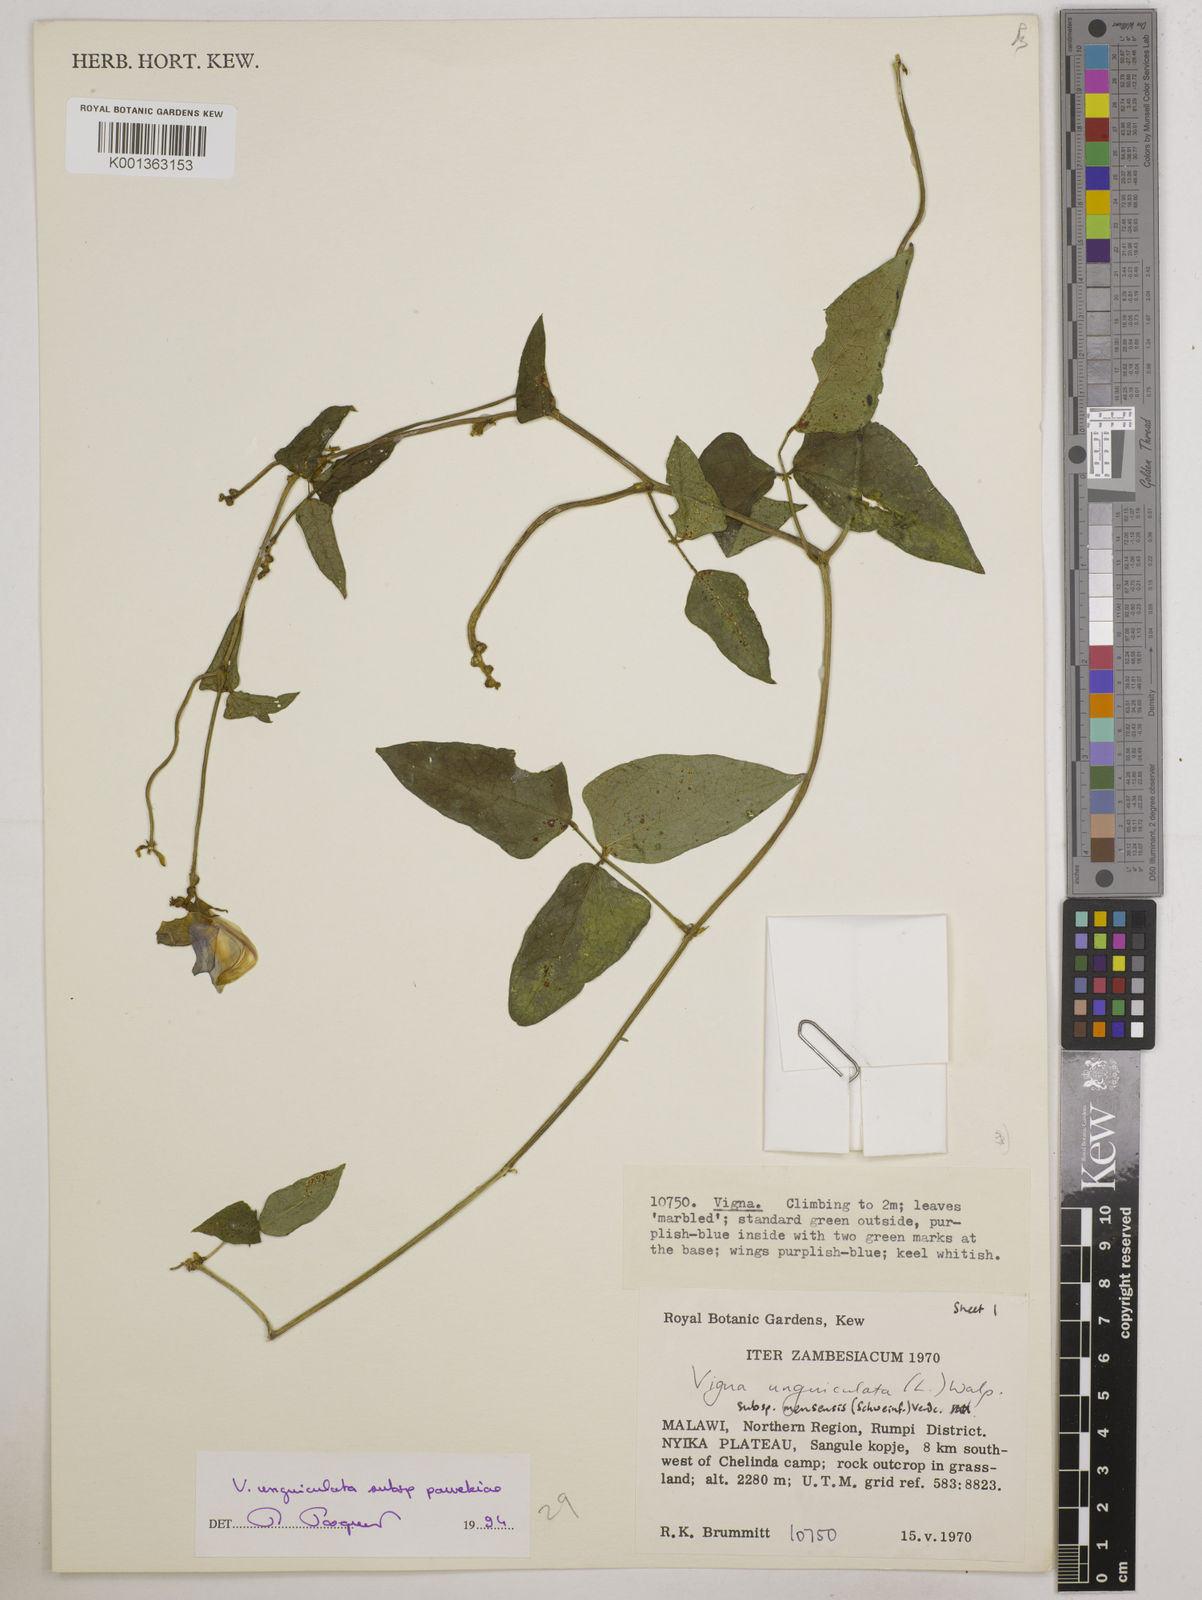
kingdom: Plantae
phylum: Tracheophyta
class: Magnoliopsida
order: Fabales
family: Fabaceae
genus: Vigna
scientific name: Vigna unguiculata
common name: Cowpea
